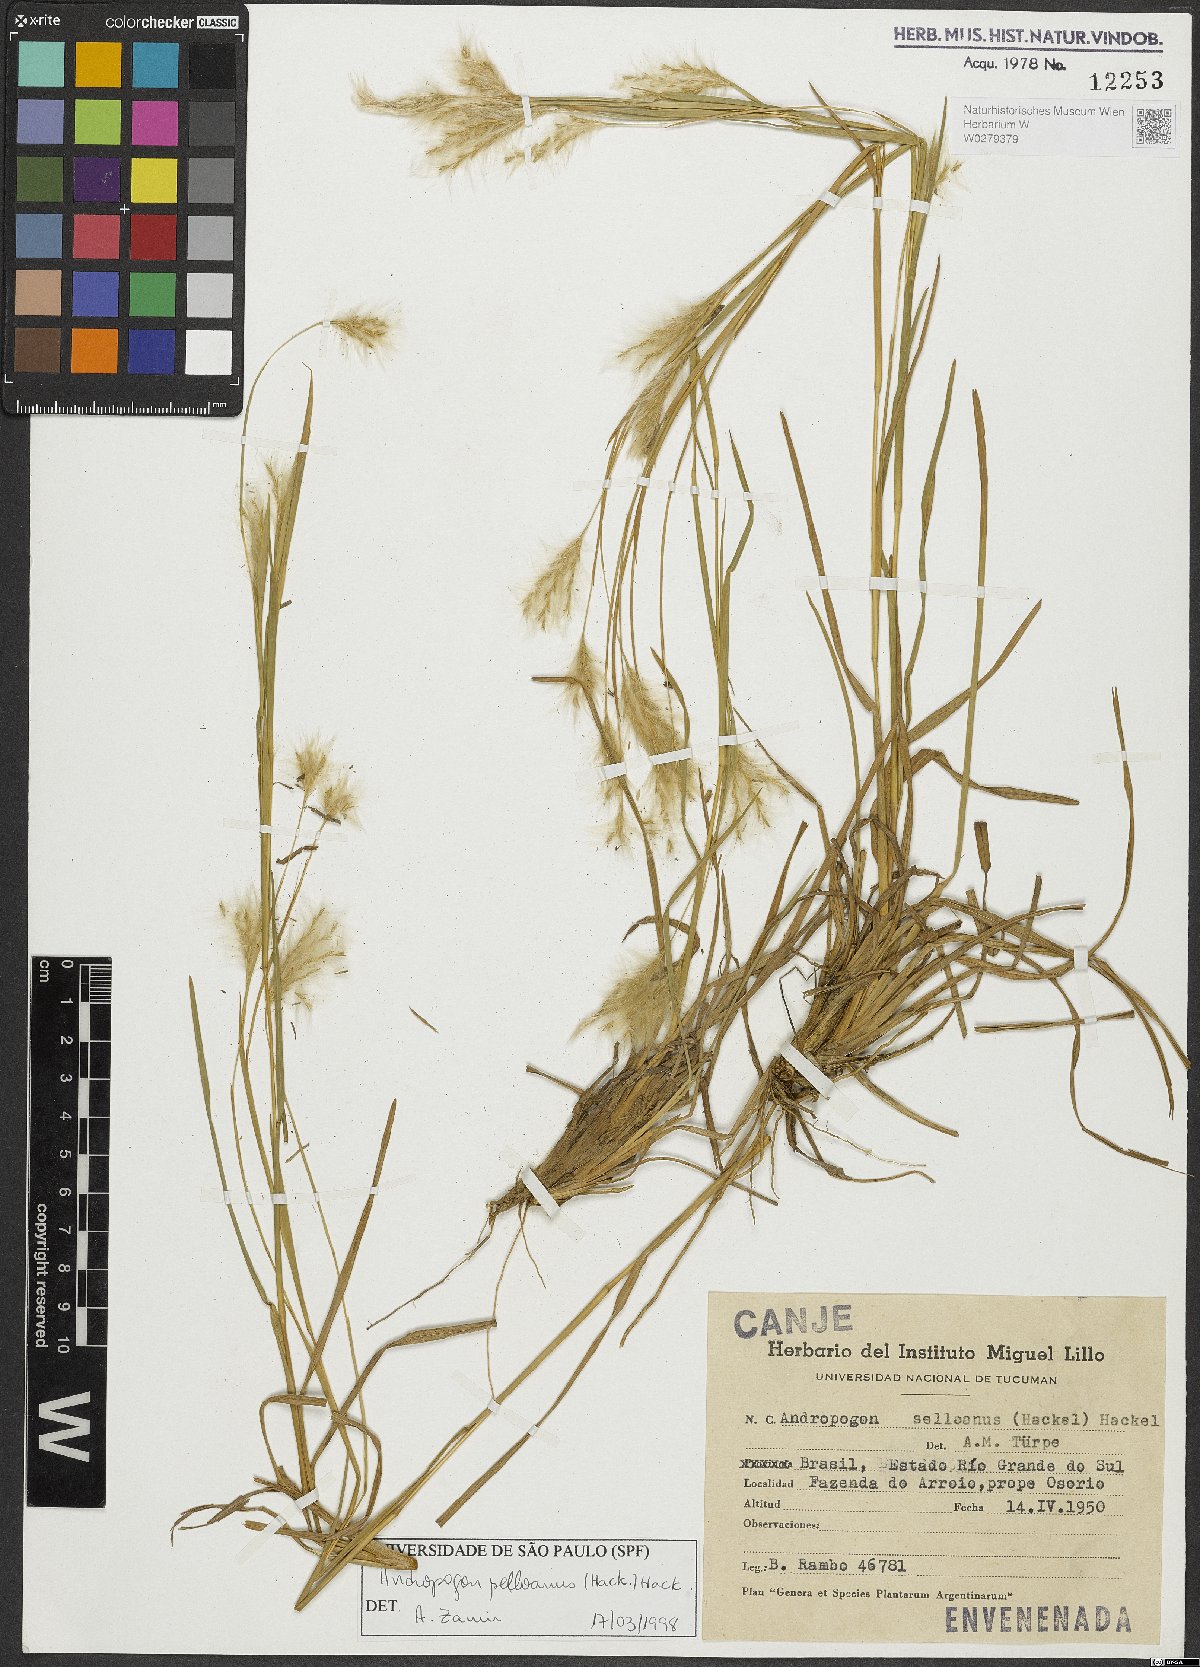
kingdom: Plantae
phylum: Tracheophyta
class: Liliopsida
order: Poales
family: Poaceae
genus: Andropogon
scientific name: Andropogon selloanus
